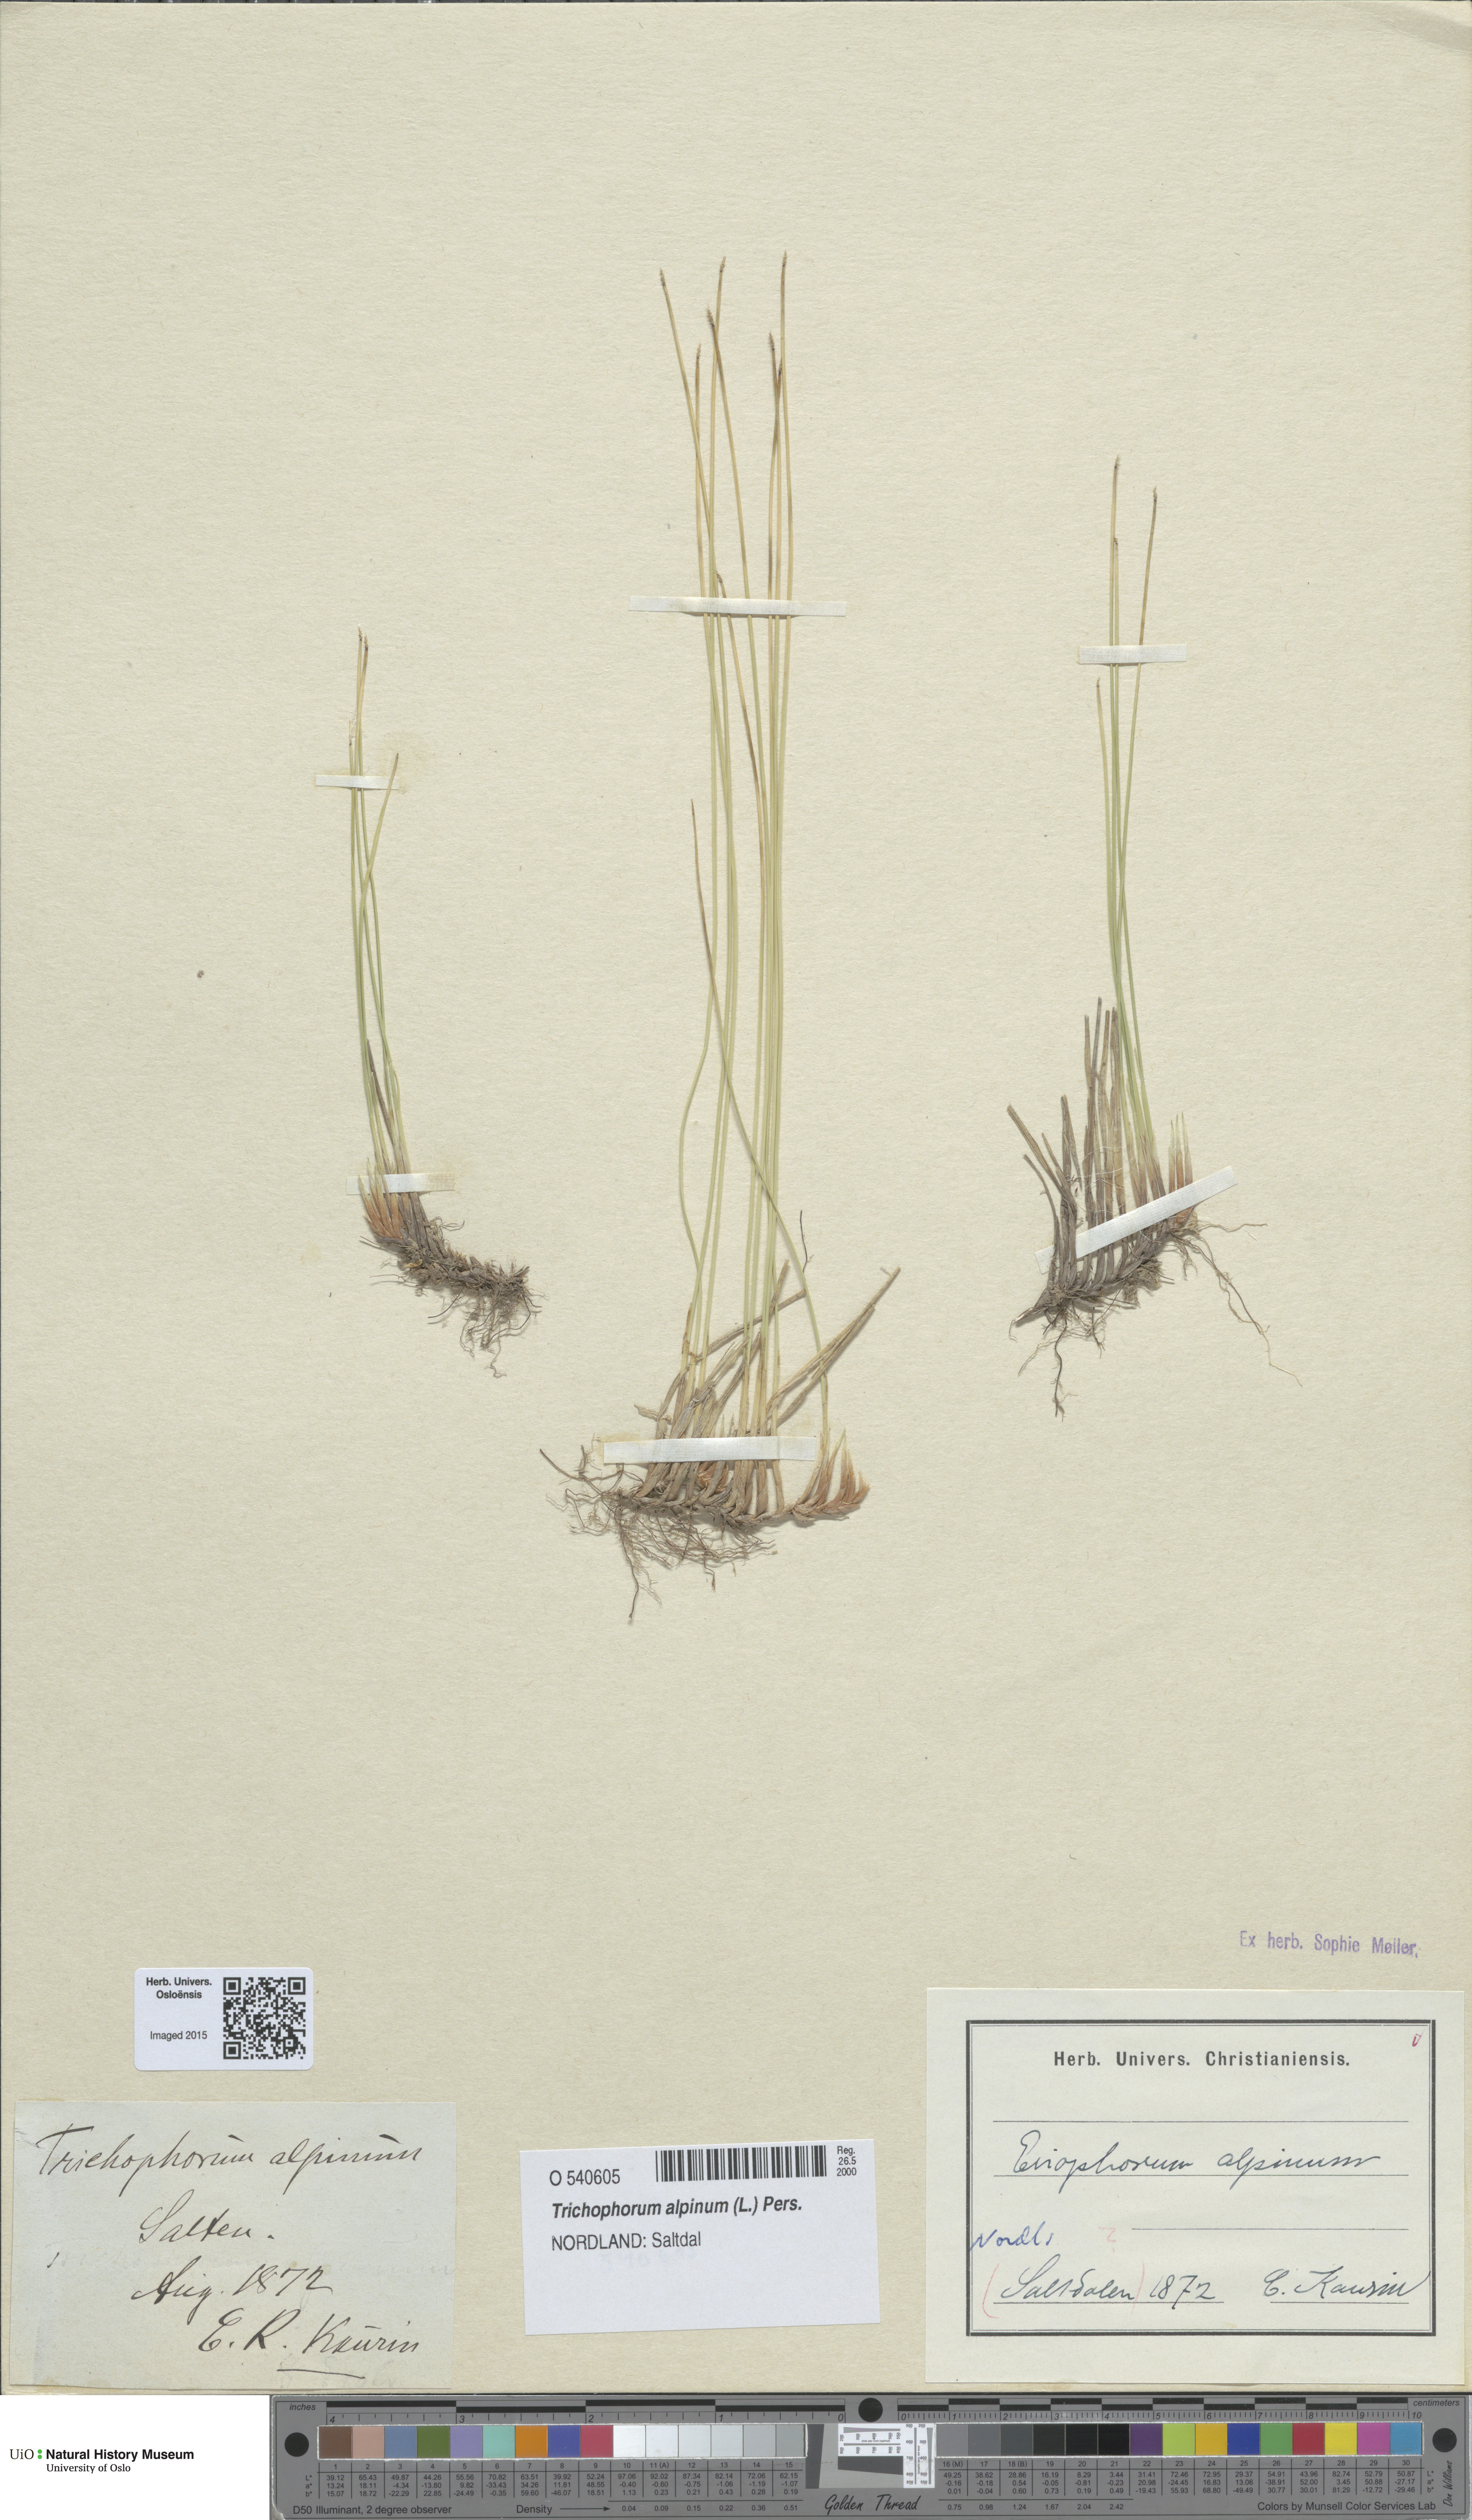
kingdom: Plantae
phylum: Tracheophyta
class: Liliopsida
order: Poales
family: Cyperaceae
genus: Trichophorum
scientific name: Trichophorum alpinum
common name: Alpine bulrush
